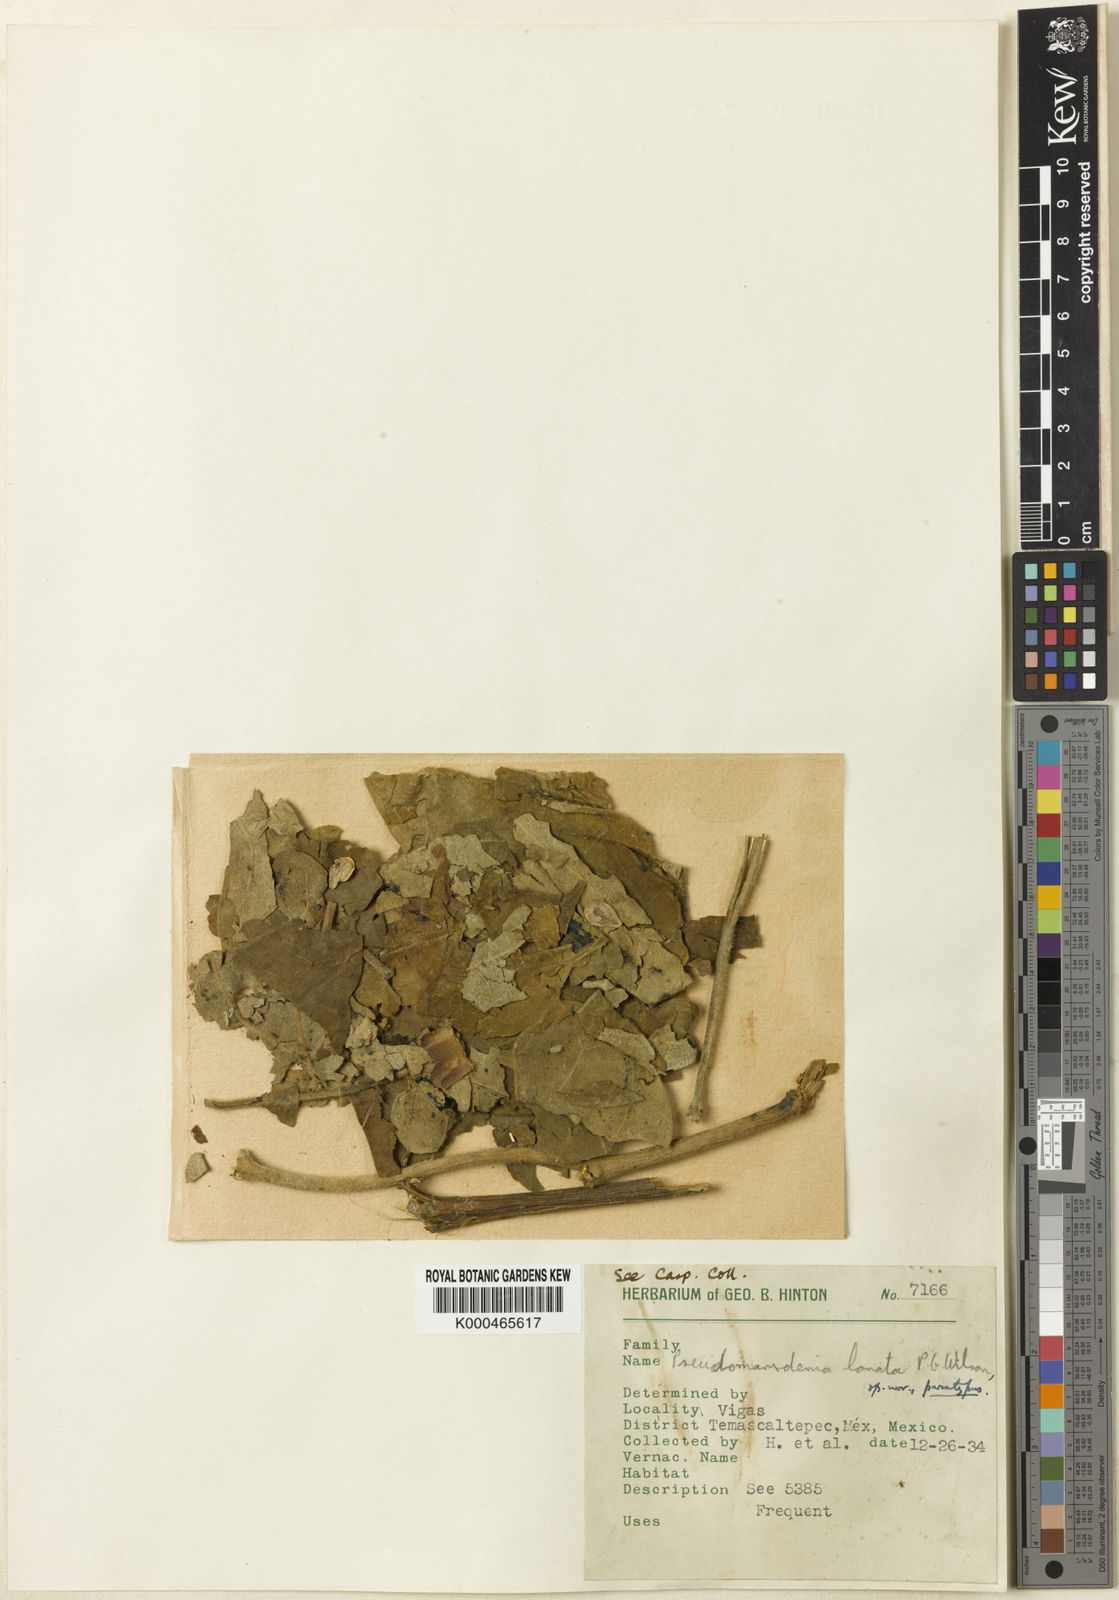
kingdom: Plantae
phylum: Tracheophyta
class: Magnoliopsida
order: Gentianales
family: Apocynaceae
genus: Ruehssia
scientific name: Ruehssia lanata
